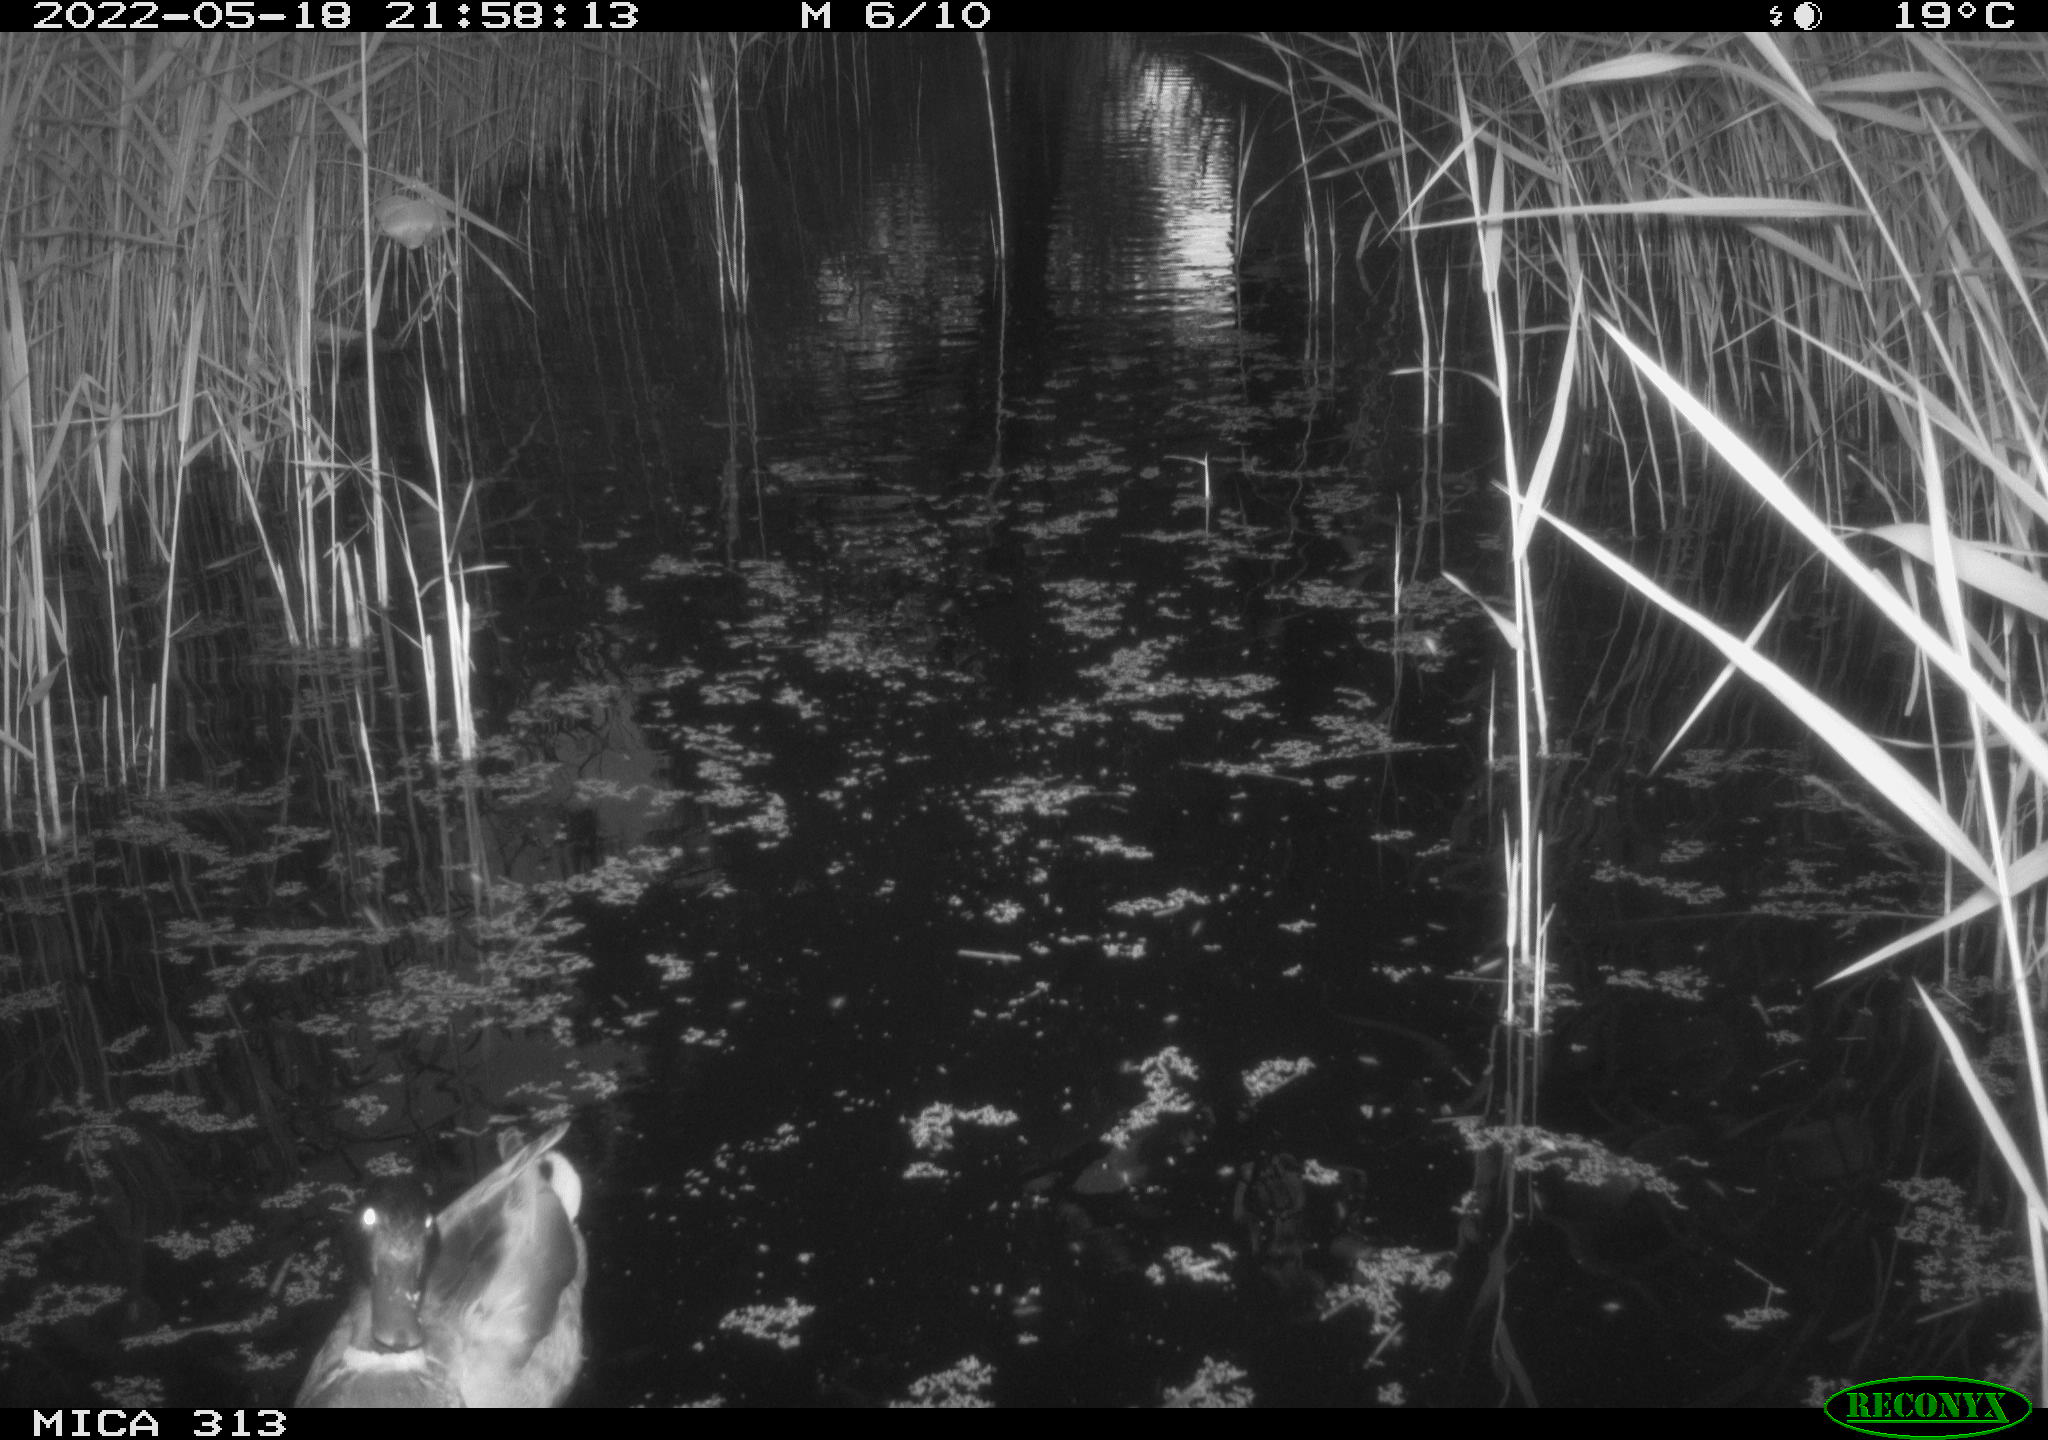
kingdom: Animalia
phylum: Chordata
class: Aves
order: Anseriformes
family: Anatidae
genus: Anas
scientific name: Anas platyrhynchos
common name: Mallard
